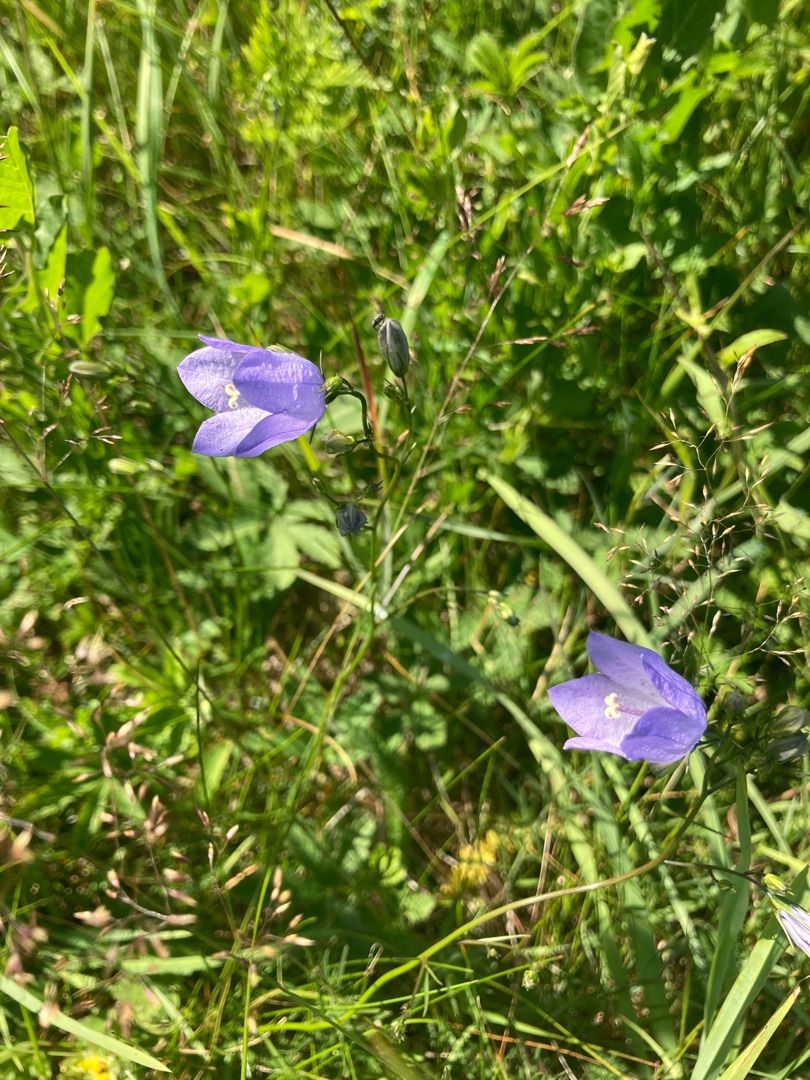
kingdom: Plantae
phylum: Tracheophyta
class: Magnoliopsida
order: Asterales
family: Campanulaceae
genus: Campanula
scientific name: Campanula rotundifolia
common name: Liden klokke
